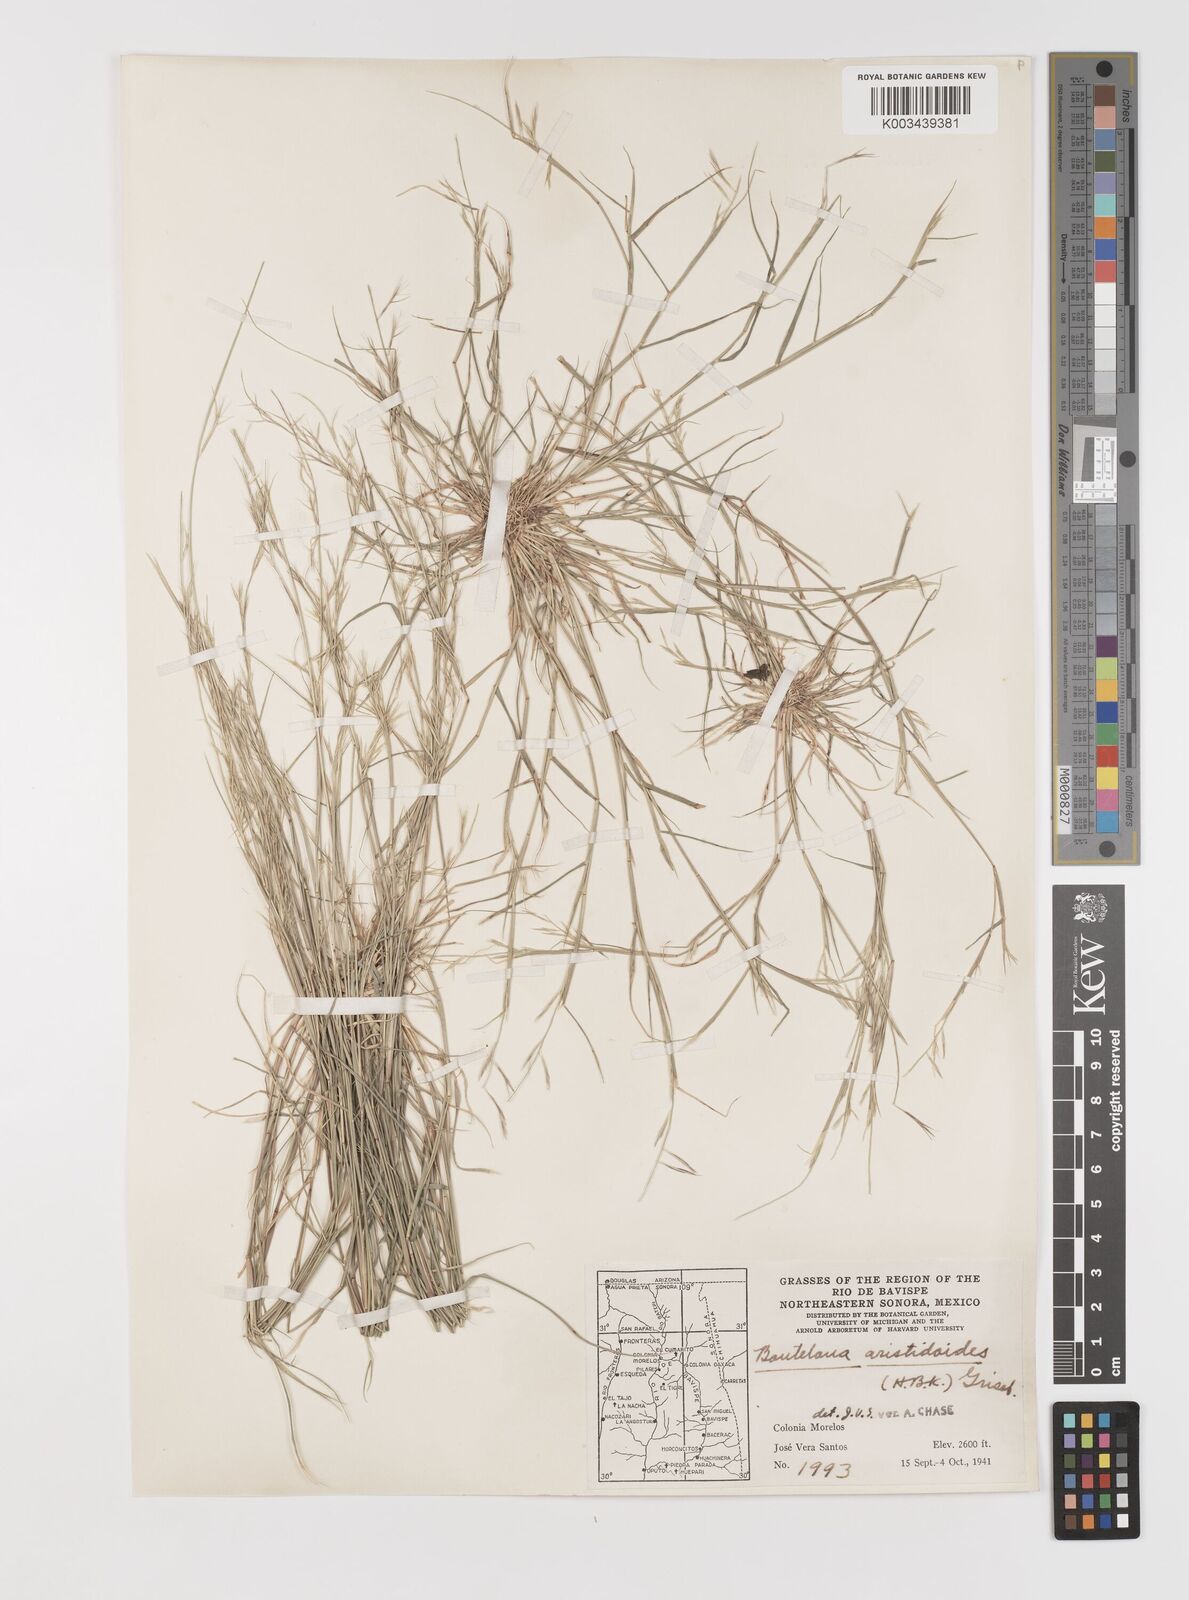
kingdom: Plantae
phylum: Tracheophyta
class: Liliopsida
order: Poales
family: Poaceae
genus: Bouteloua
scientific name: Bouteloua aristidoides
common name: Needle grama
